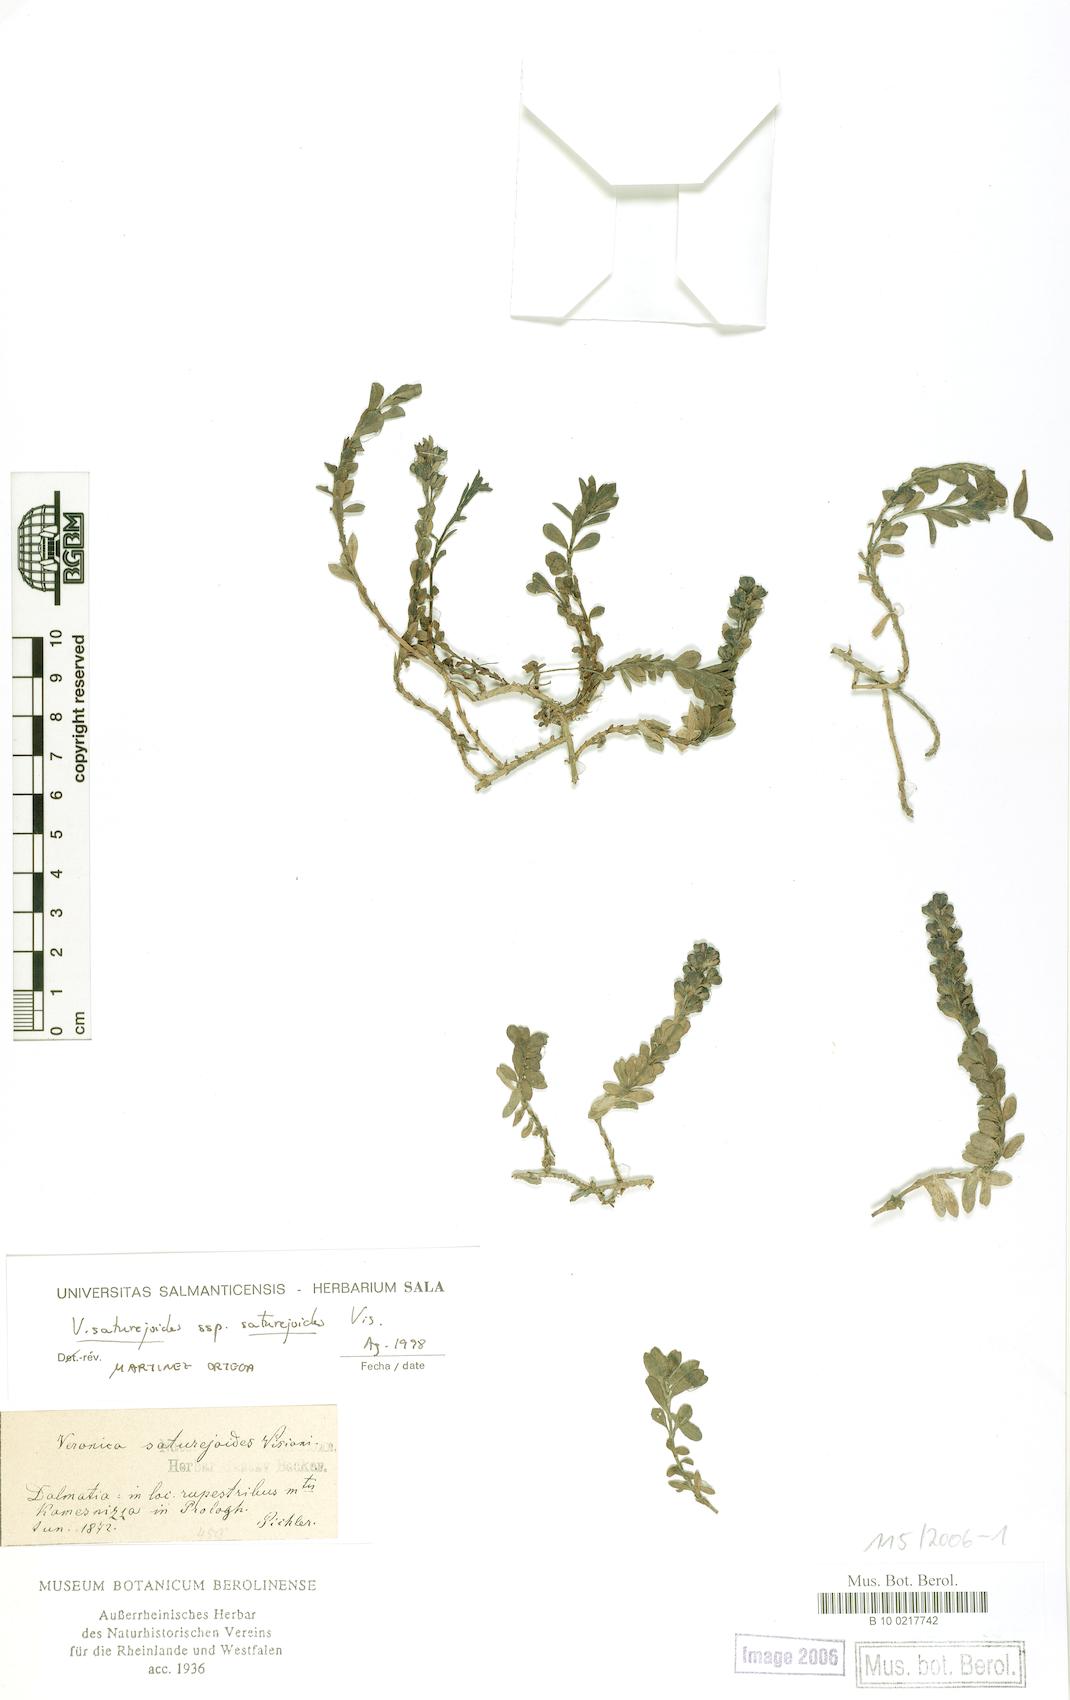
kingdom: Plantae
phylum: Tracheophyta
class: Magnoliopsida
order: Lamiales
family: Plantaginaceae
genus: Veronica
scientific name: Veronica saturejoides
